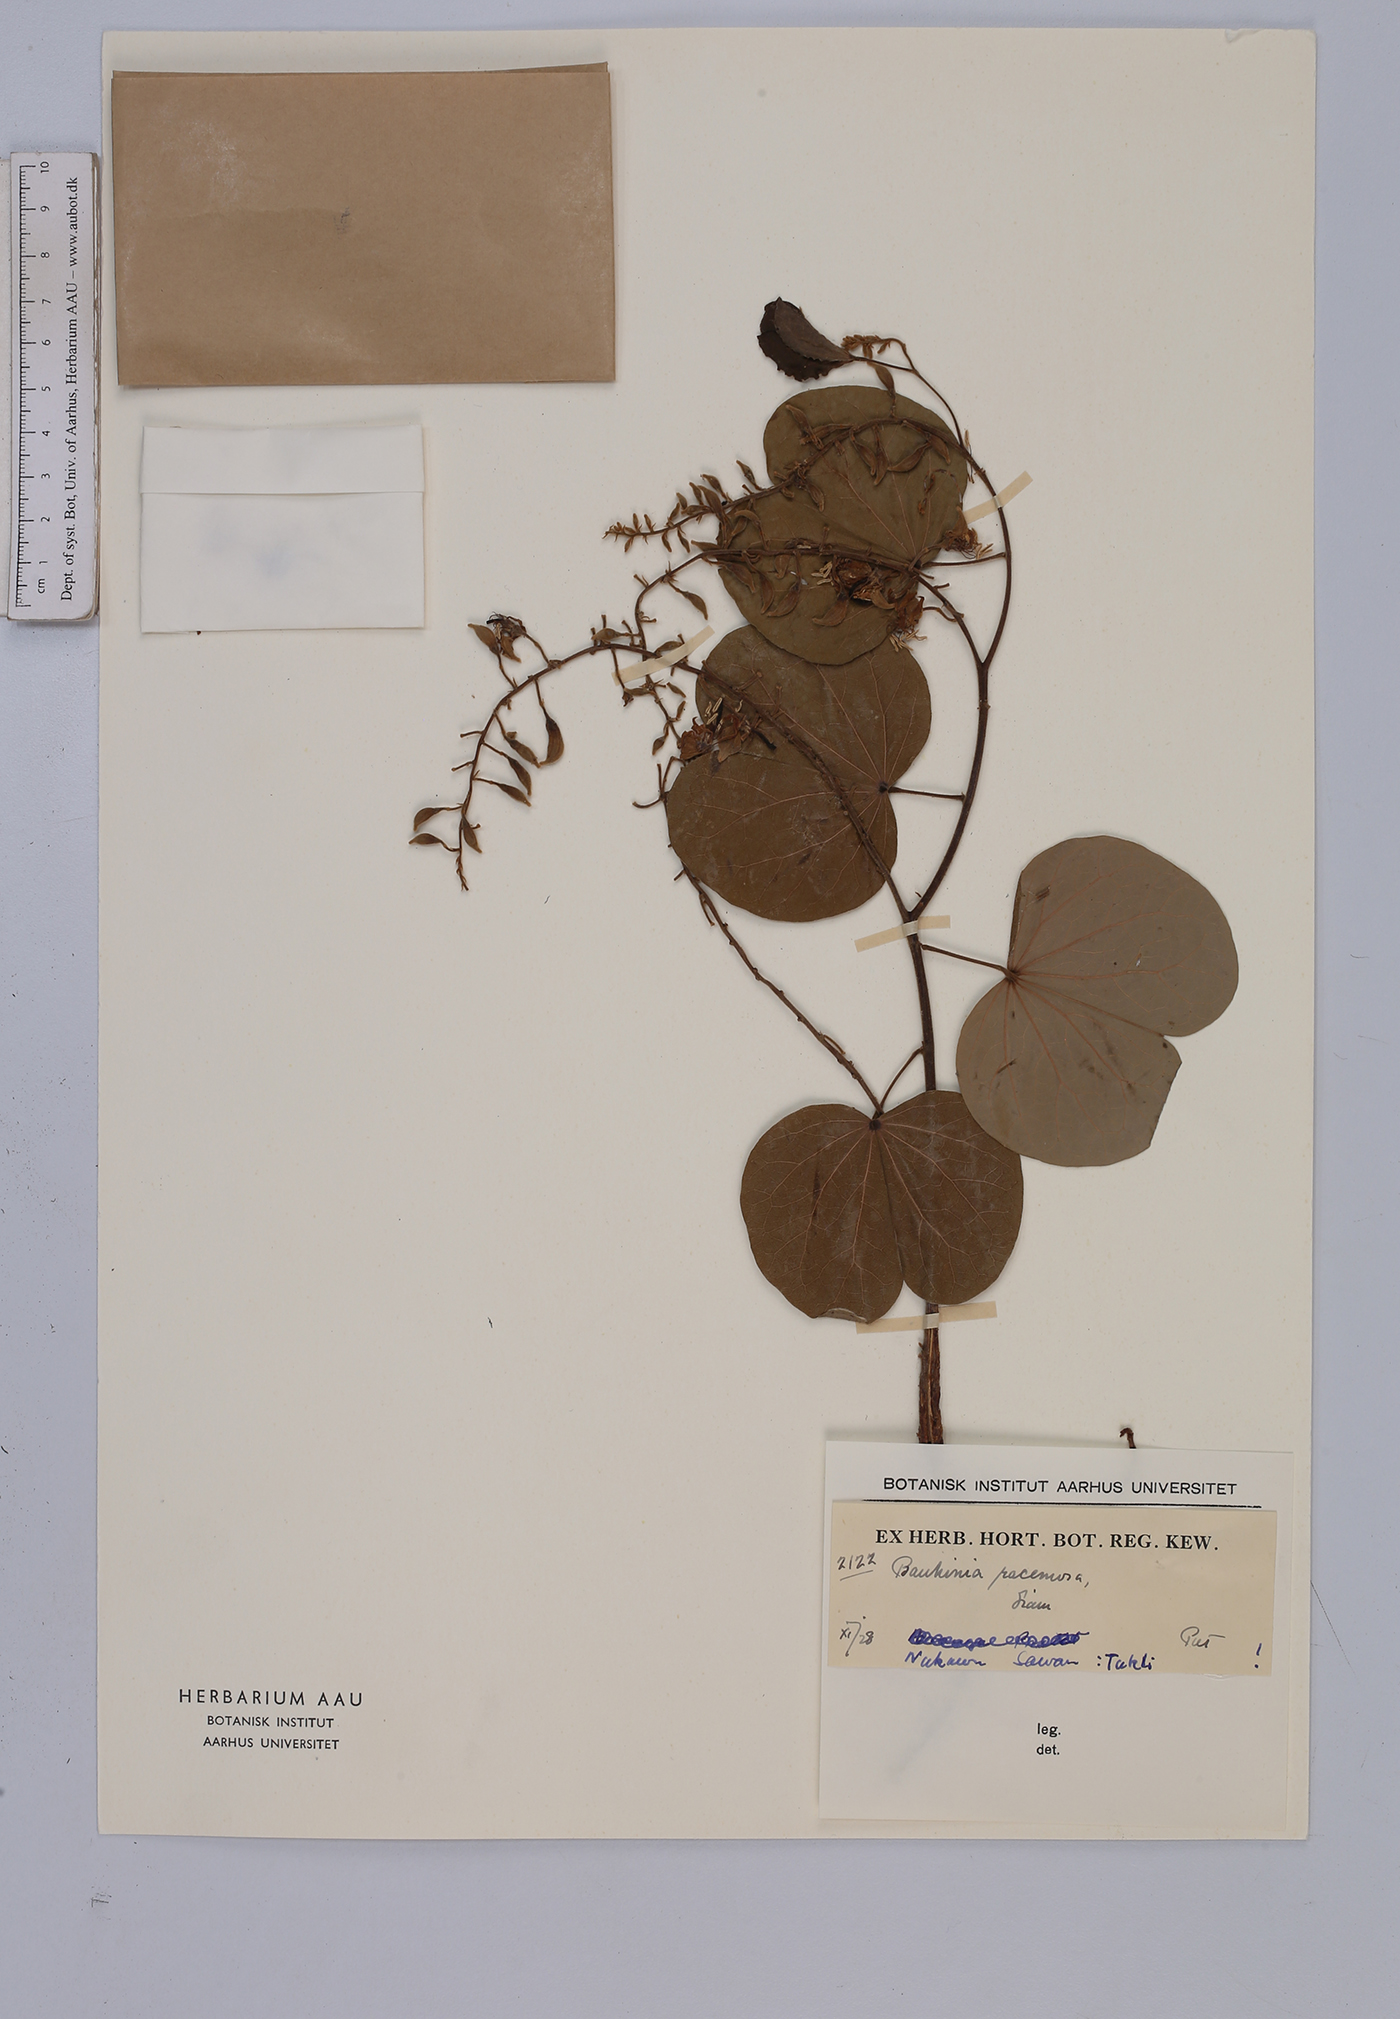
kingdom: Plantae
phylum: Tracheophyta
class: Magnoliopsida
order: Fabales
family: Fabaceae
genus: Bauhinia
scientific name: Bauhinia racemosa
